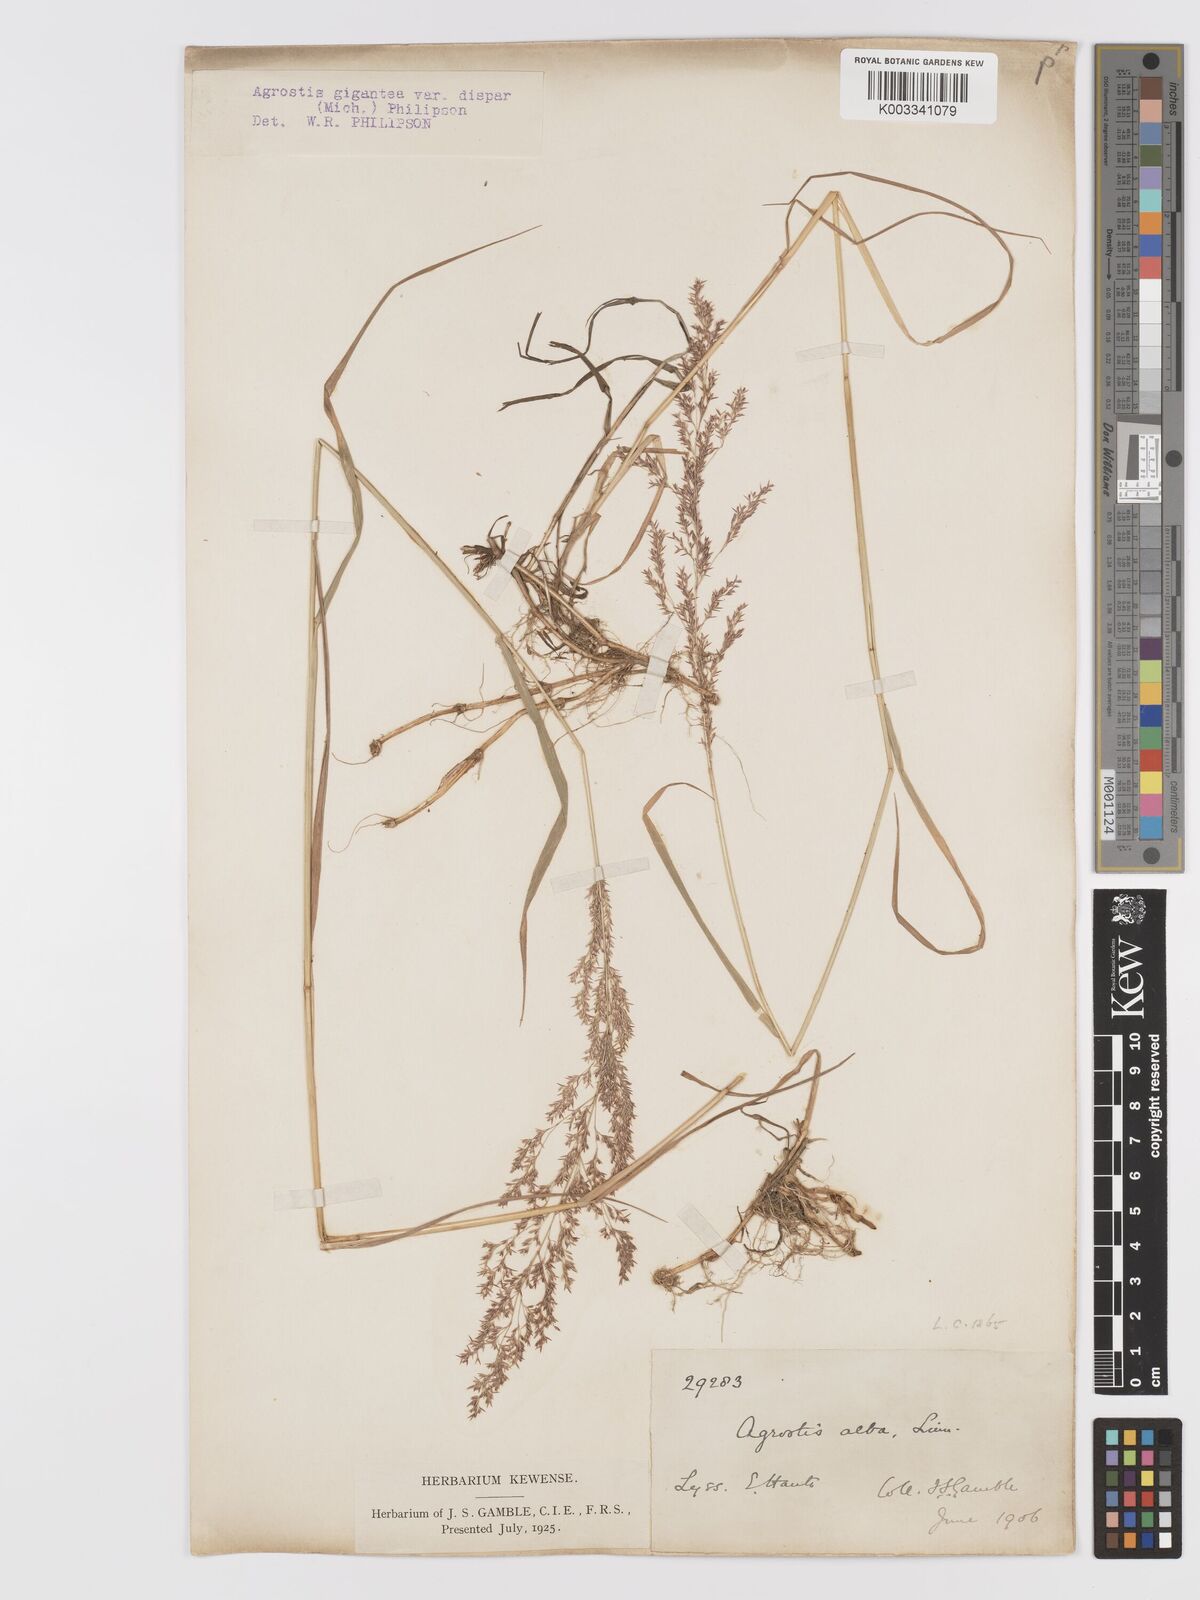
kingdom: Plantae
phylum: Tracheophyta
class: Liliopsida
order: Poales
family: Poaceae
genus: Agrostis
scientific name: Agrostis gigantea
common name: Black bent
